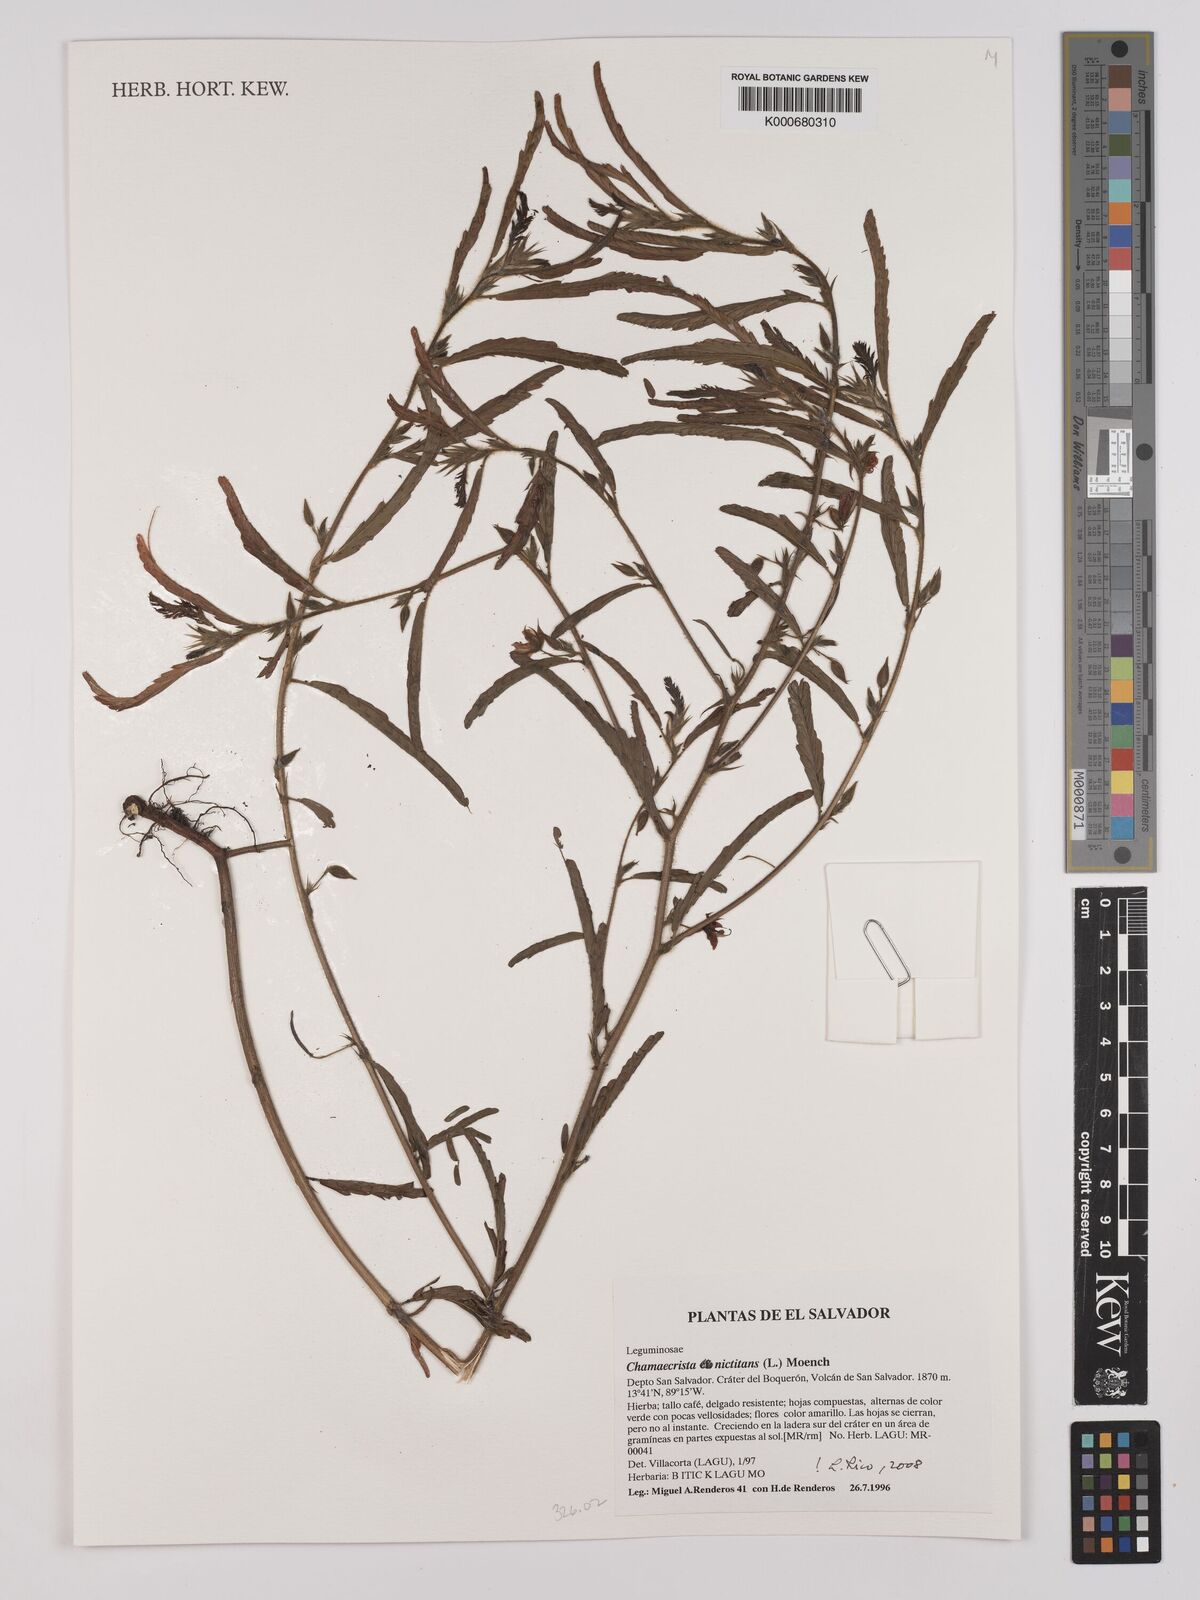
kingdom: Plantae
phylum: Tracheophyta
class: Magnoliopsida
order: Fabales
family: Fabaceae
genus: Chamaecrista
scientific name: Chamaecrista nictitans
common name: Sensitive cassia
